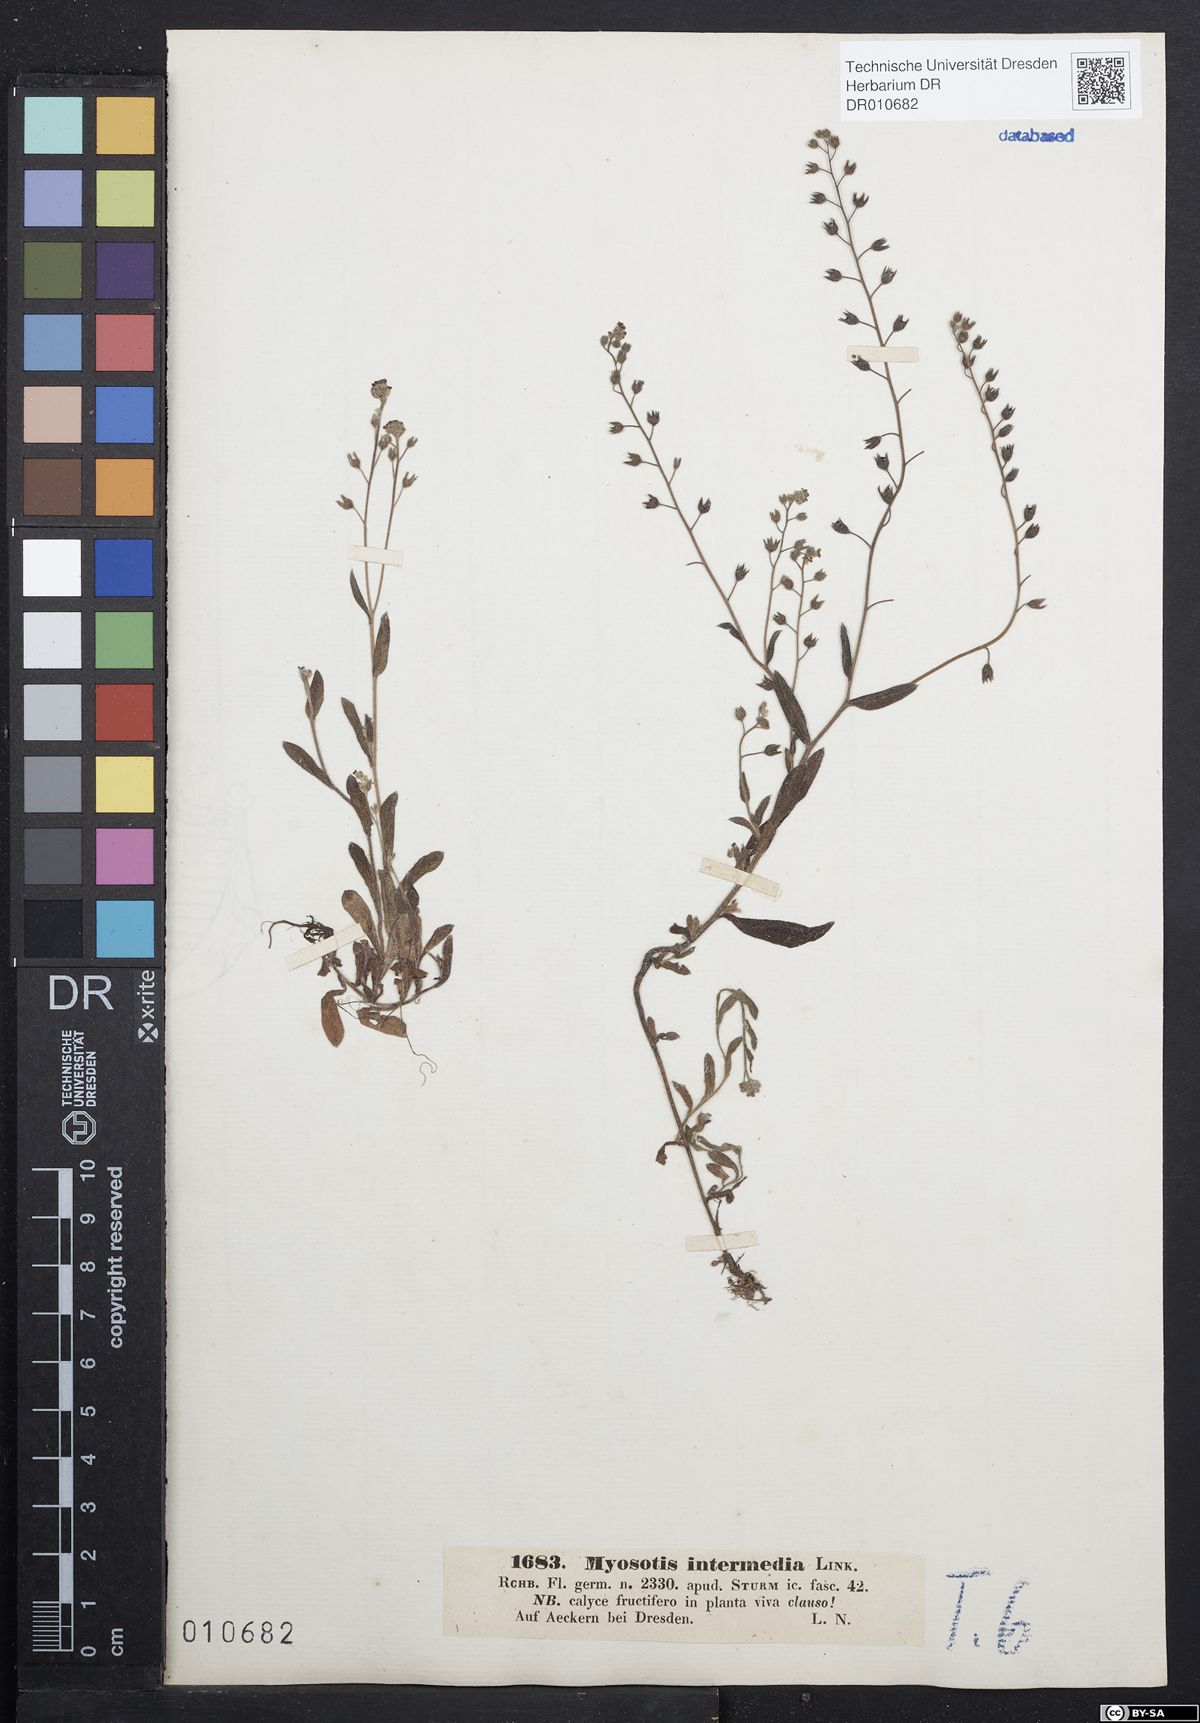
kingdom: Plantae
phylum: Tracheophyta
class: Magnoliopsida
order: Boraginales
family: Boraginaceae
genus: Myosotis
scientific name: Myosotis arvensis
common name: Field forget-me-not
